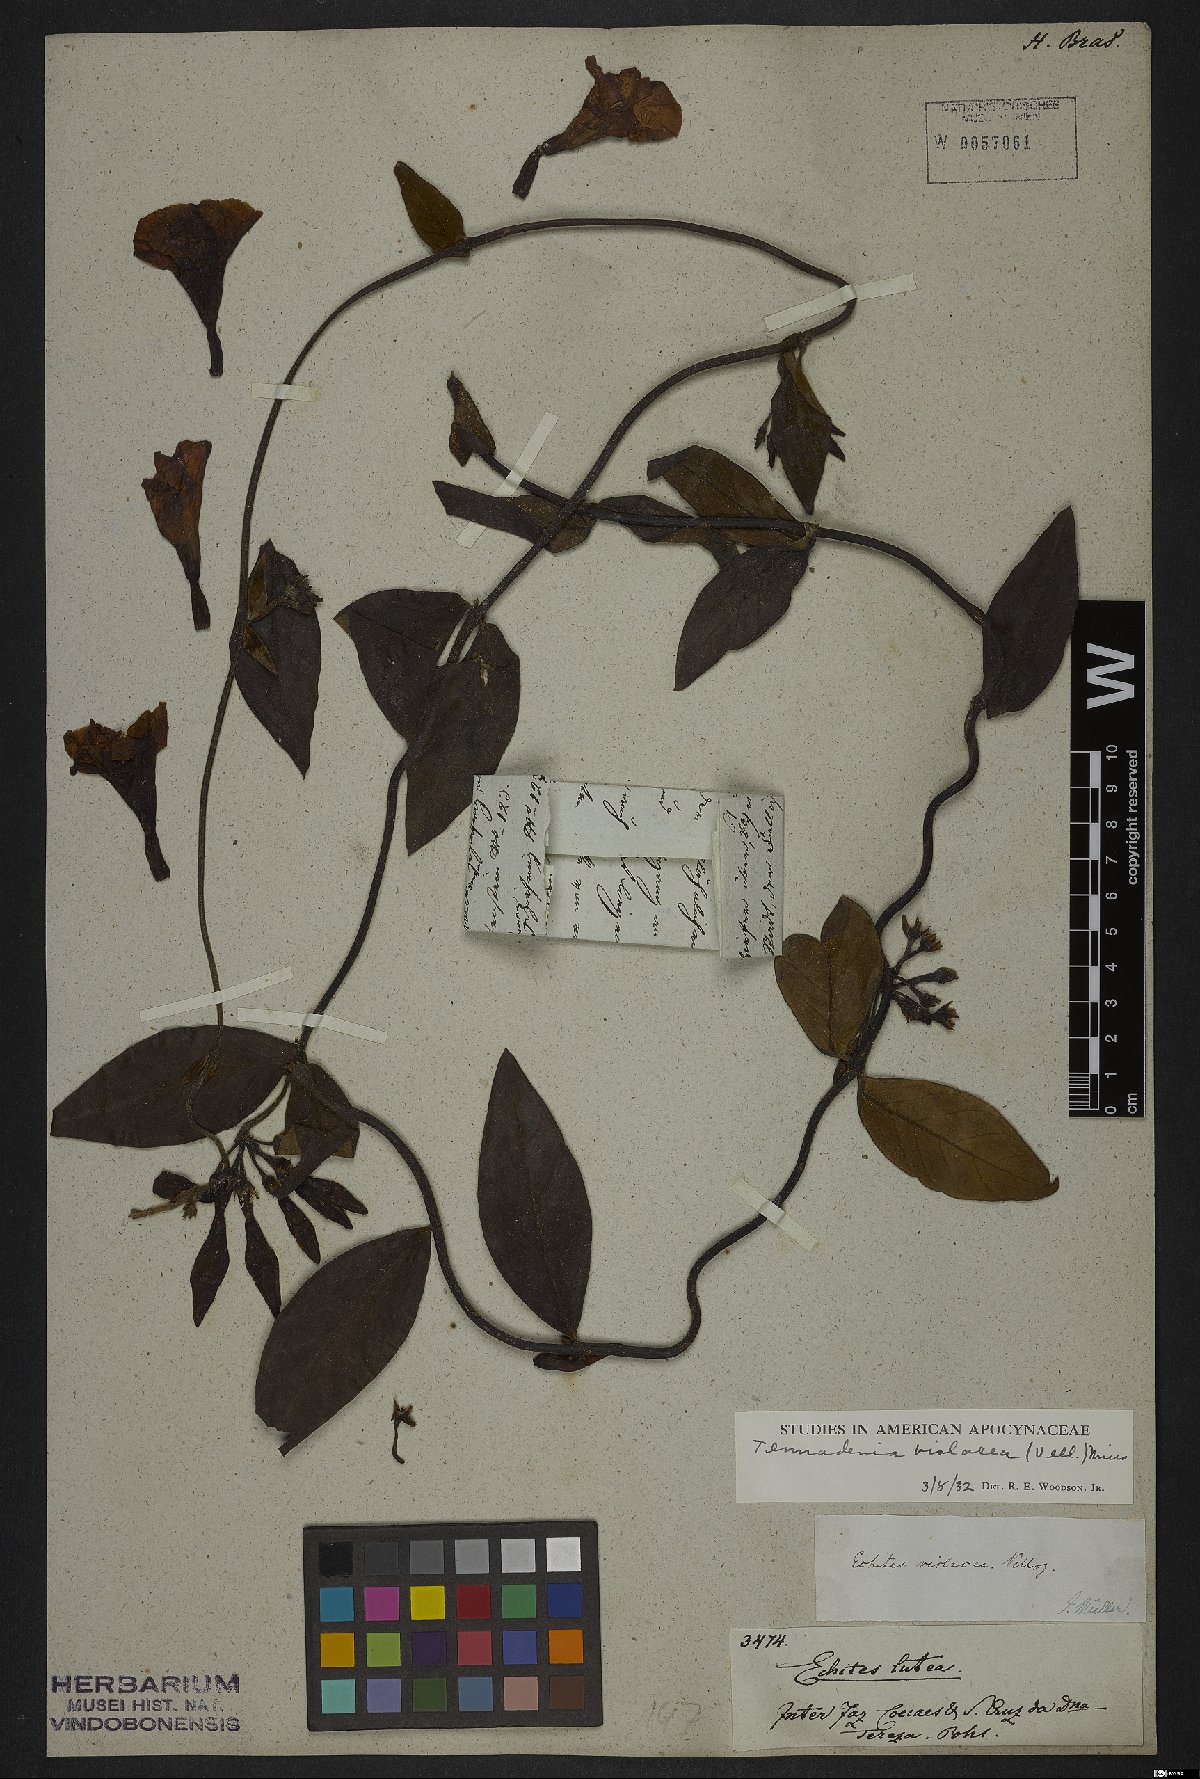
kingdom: Plantae
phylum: Tracheophyta
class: Magnoliopsida
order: Gentianales
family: Apocynaceae
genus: Temnadenia
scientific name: Temnadenia violacea
